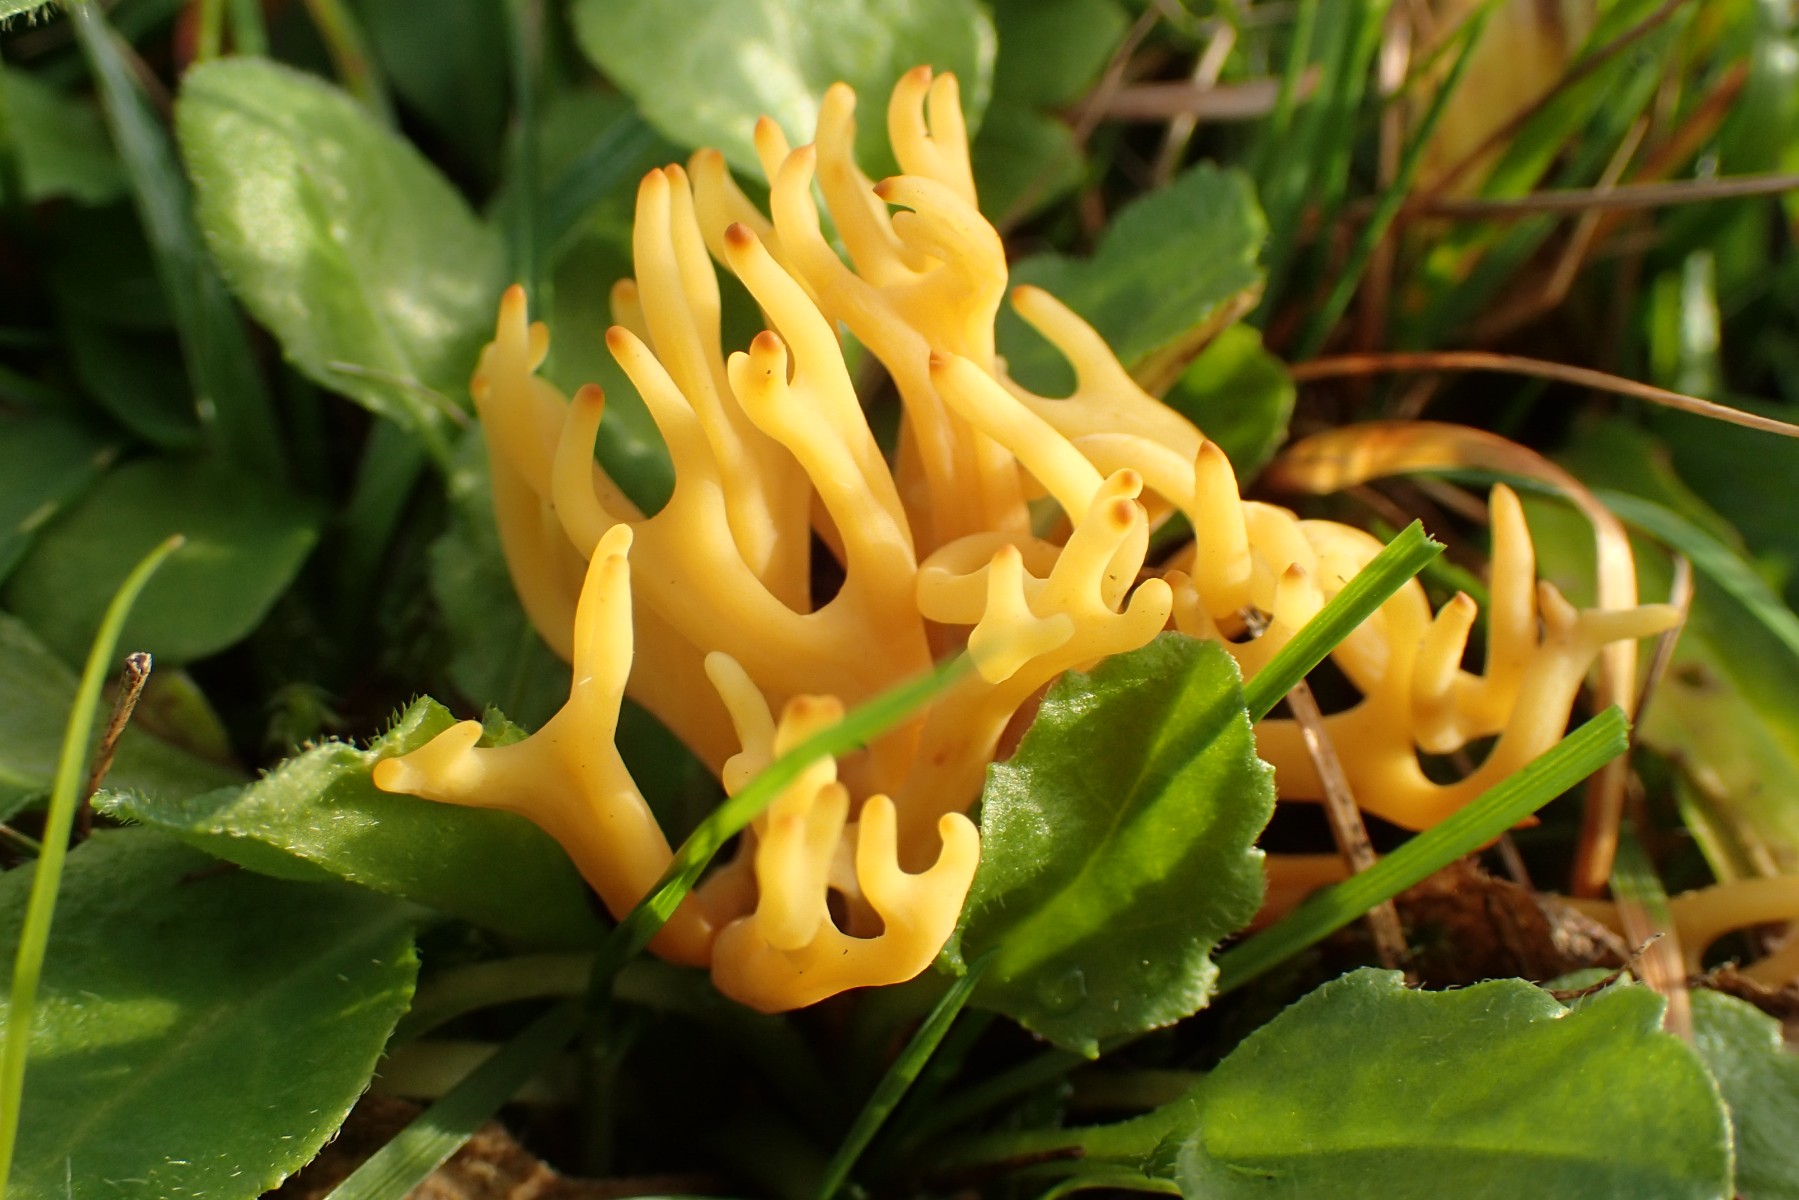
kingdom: Fungi
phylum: Basidiomycota
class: Agaricomycetes
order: Agaricales
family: Clavariaceae
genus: Clavulinopsis
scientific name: Clavulinopsis corniculata
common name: eng-køllesvamp
